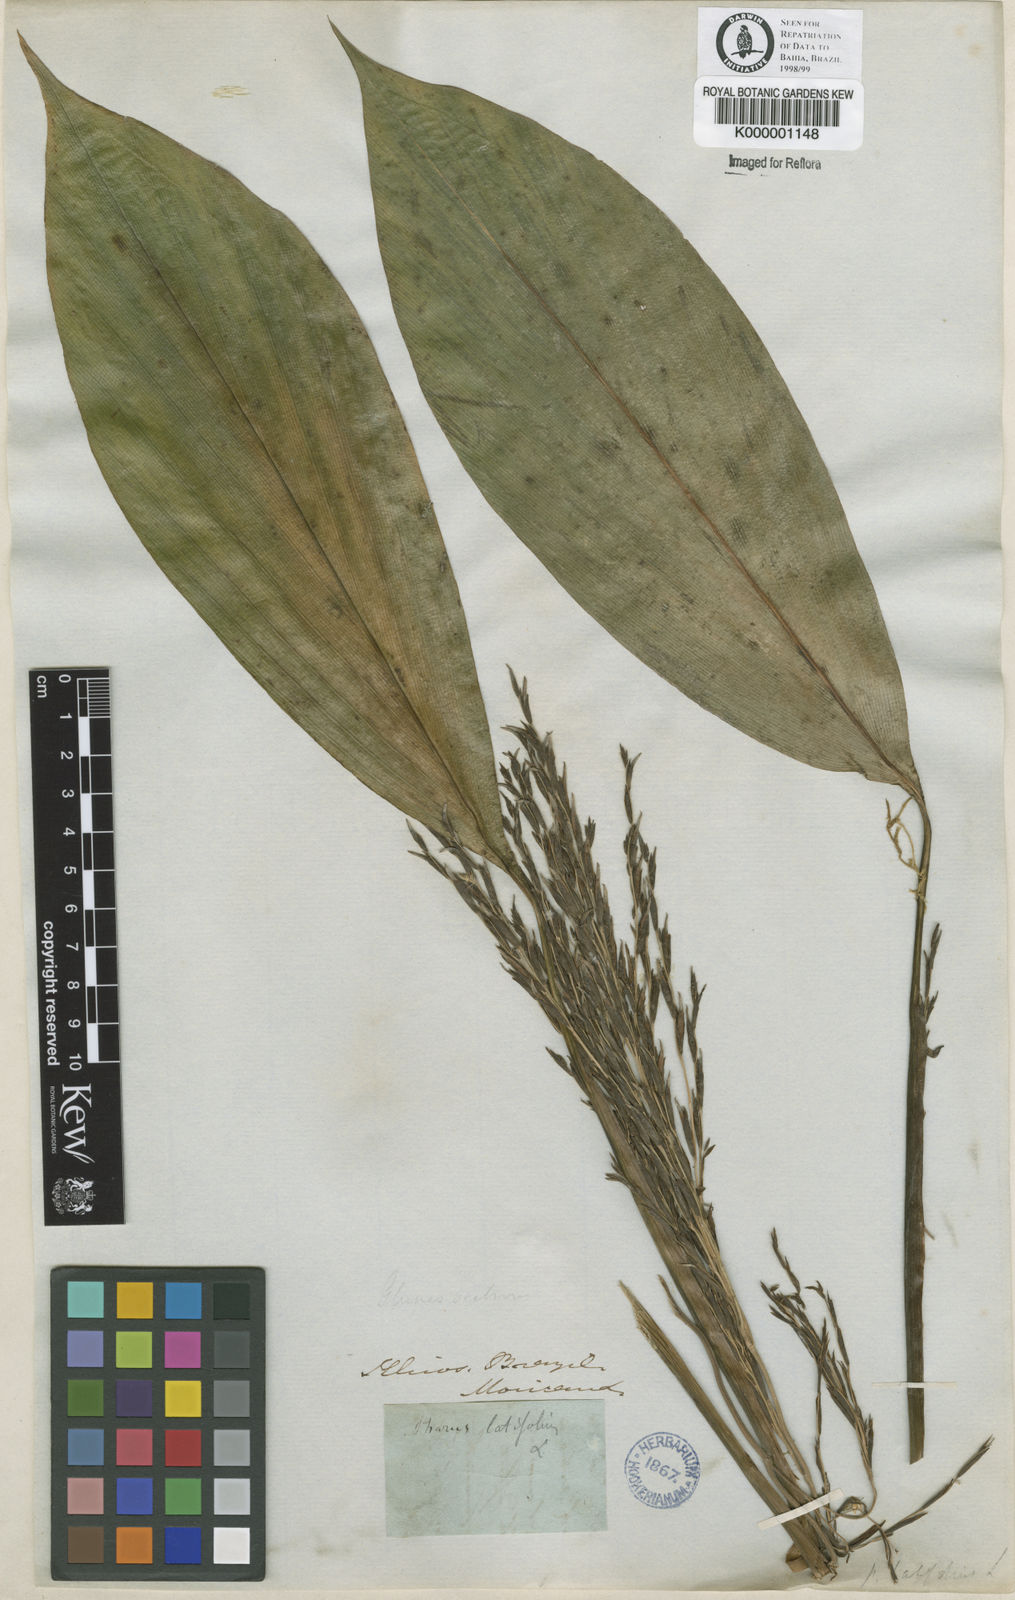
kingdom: Plantae
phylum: Tracheophyta
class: Liliopsida
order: Poales
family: Poaceae
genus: Pharus
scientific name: Pharus latifolius
